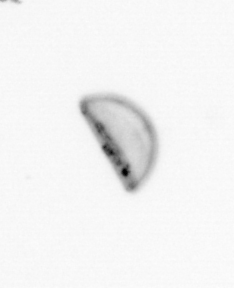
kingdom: Chromista
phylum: Ochrophyta
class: Bacillariophyceae
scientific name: Bacillariophyceae
